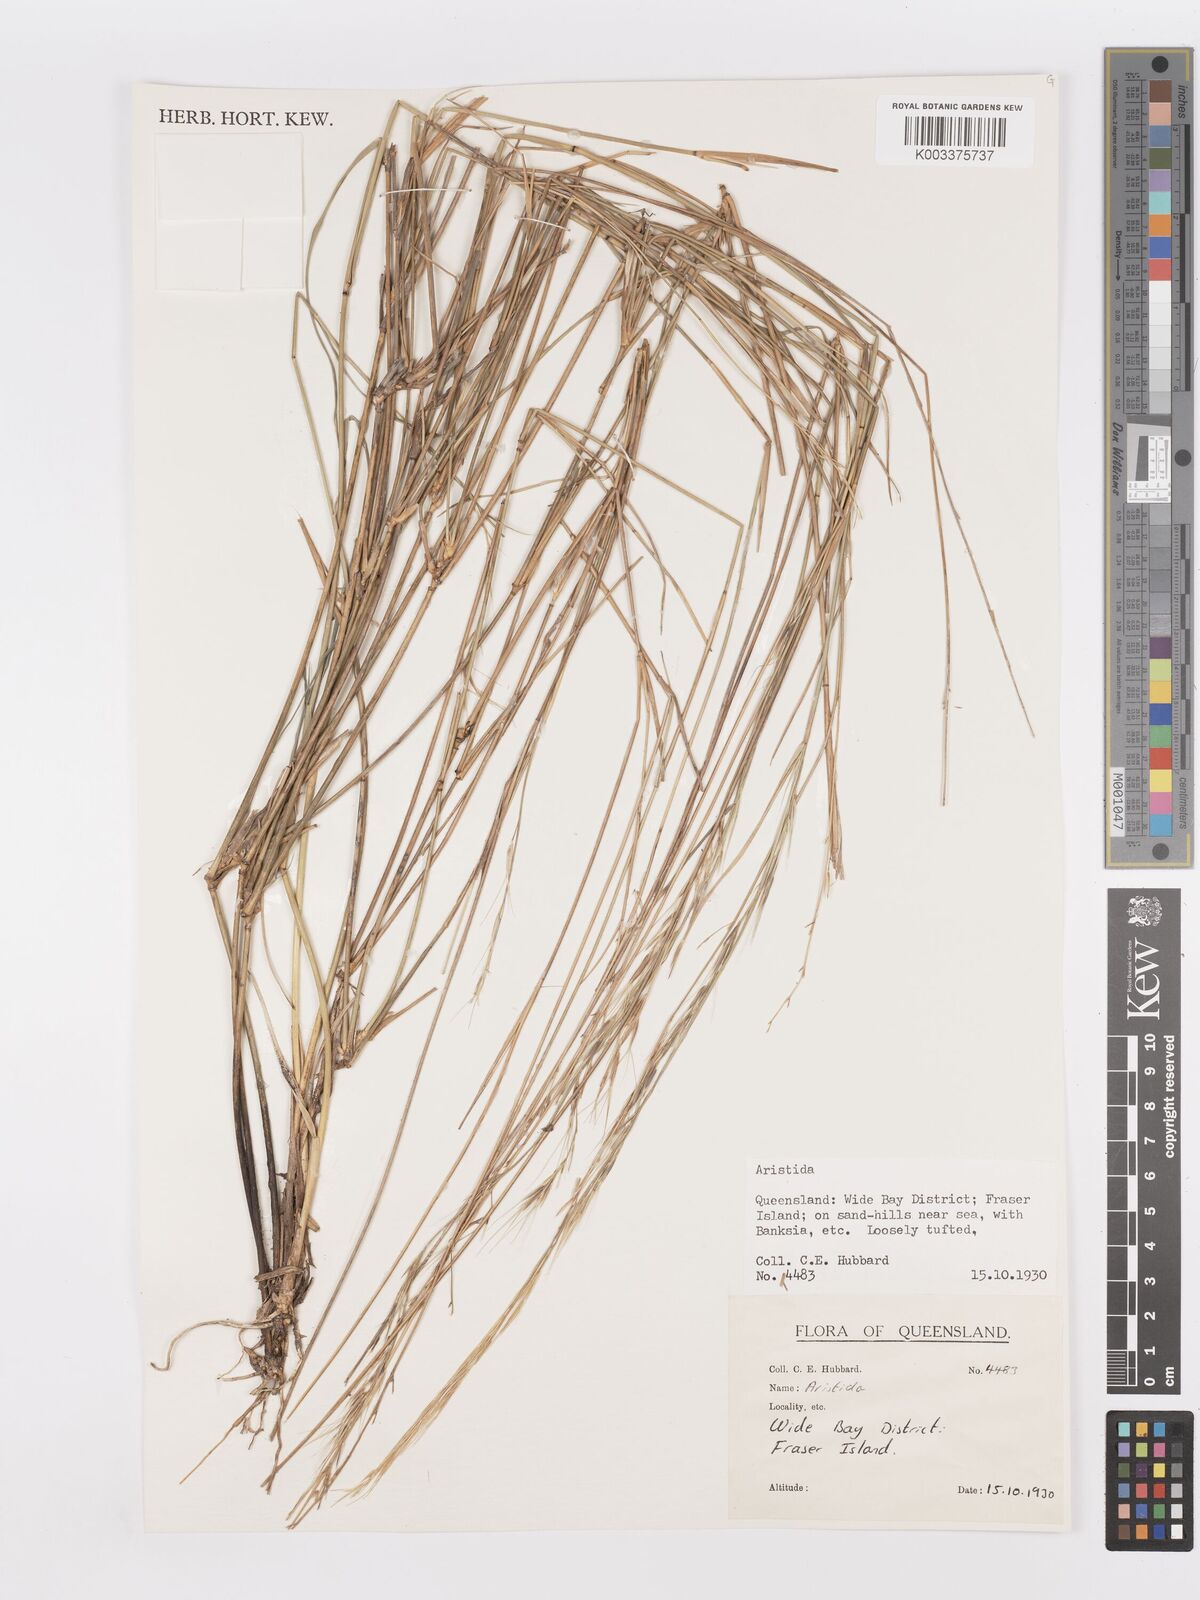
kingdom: Plantae
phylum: Tracheophyta
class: Liliopsida
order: Poales
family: Poaceae
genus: Aristida
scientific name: Aristida
